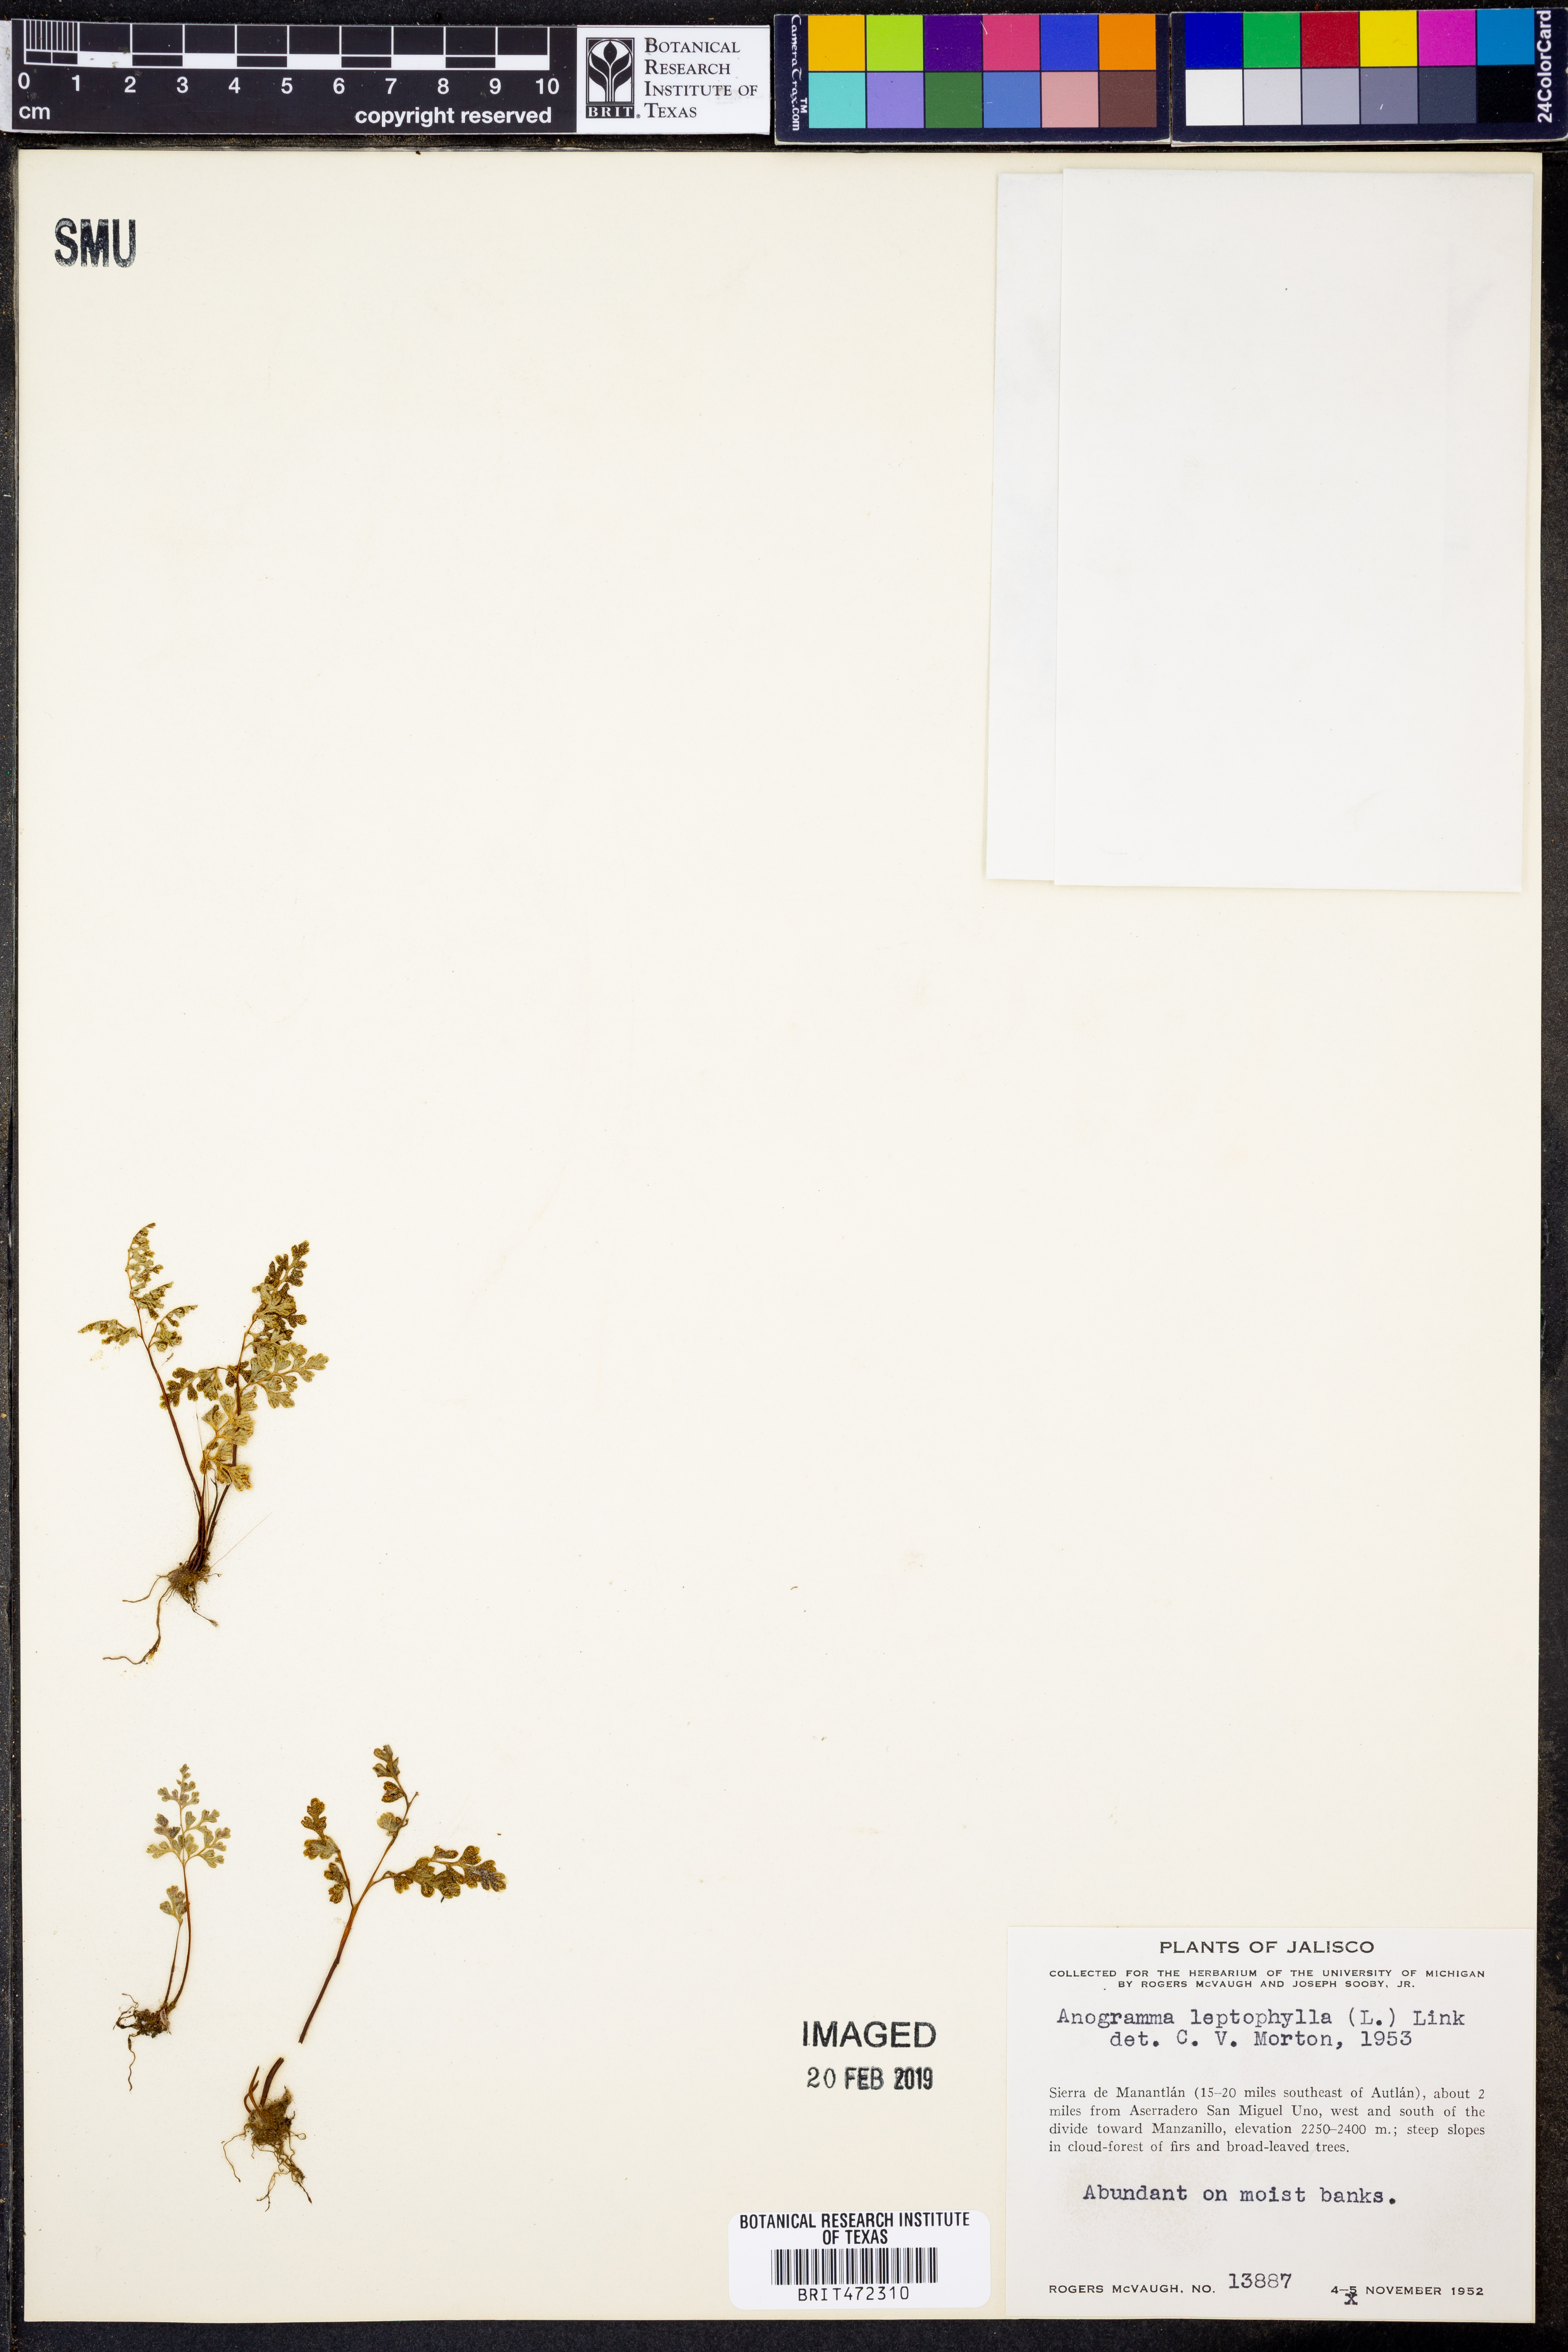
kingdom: Plantae
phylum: Tracheophyta
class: Polypodiopsida
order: Polypodiales
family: Pteridaceae
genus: Anogramma
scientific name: Anogramma leptophylla
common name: Jersey fern
